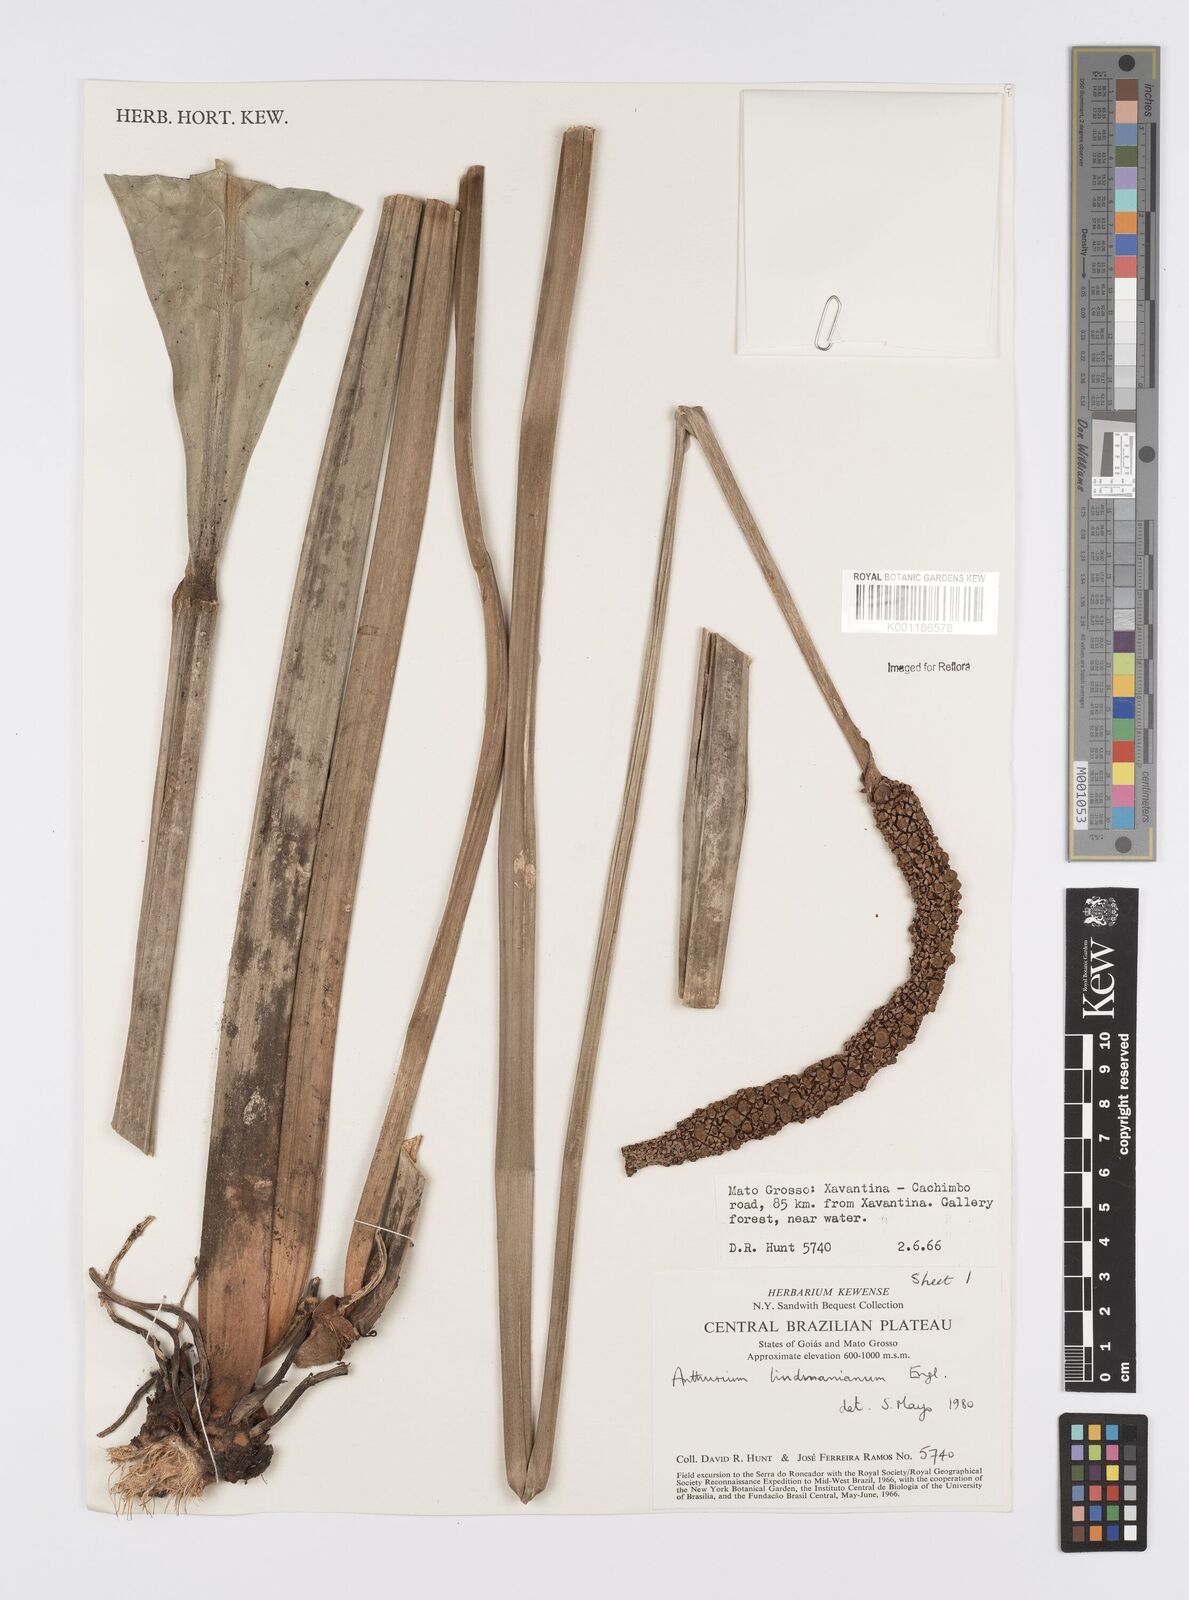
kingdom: Plantae
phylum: Tracheophyta
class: Liliopsida
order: Alismatales
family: Araceae
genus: Anthurium
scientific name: Anthurium lindmanianum
